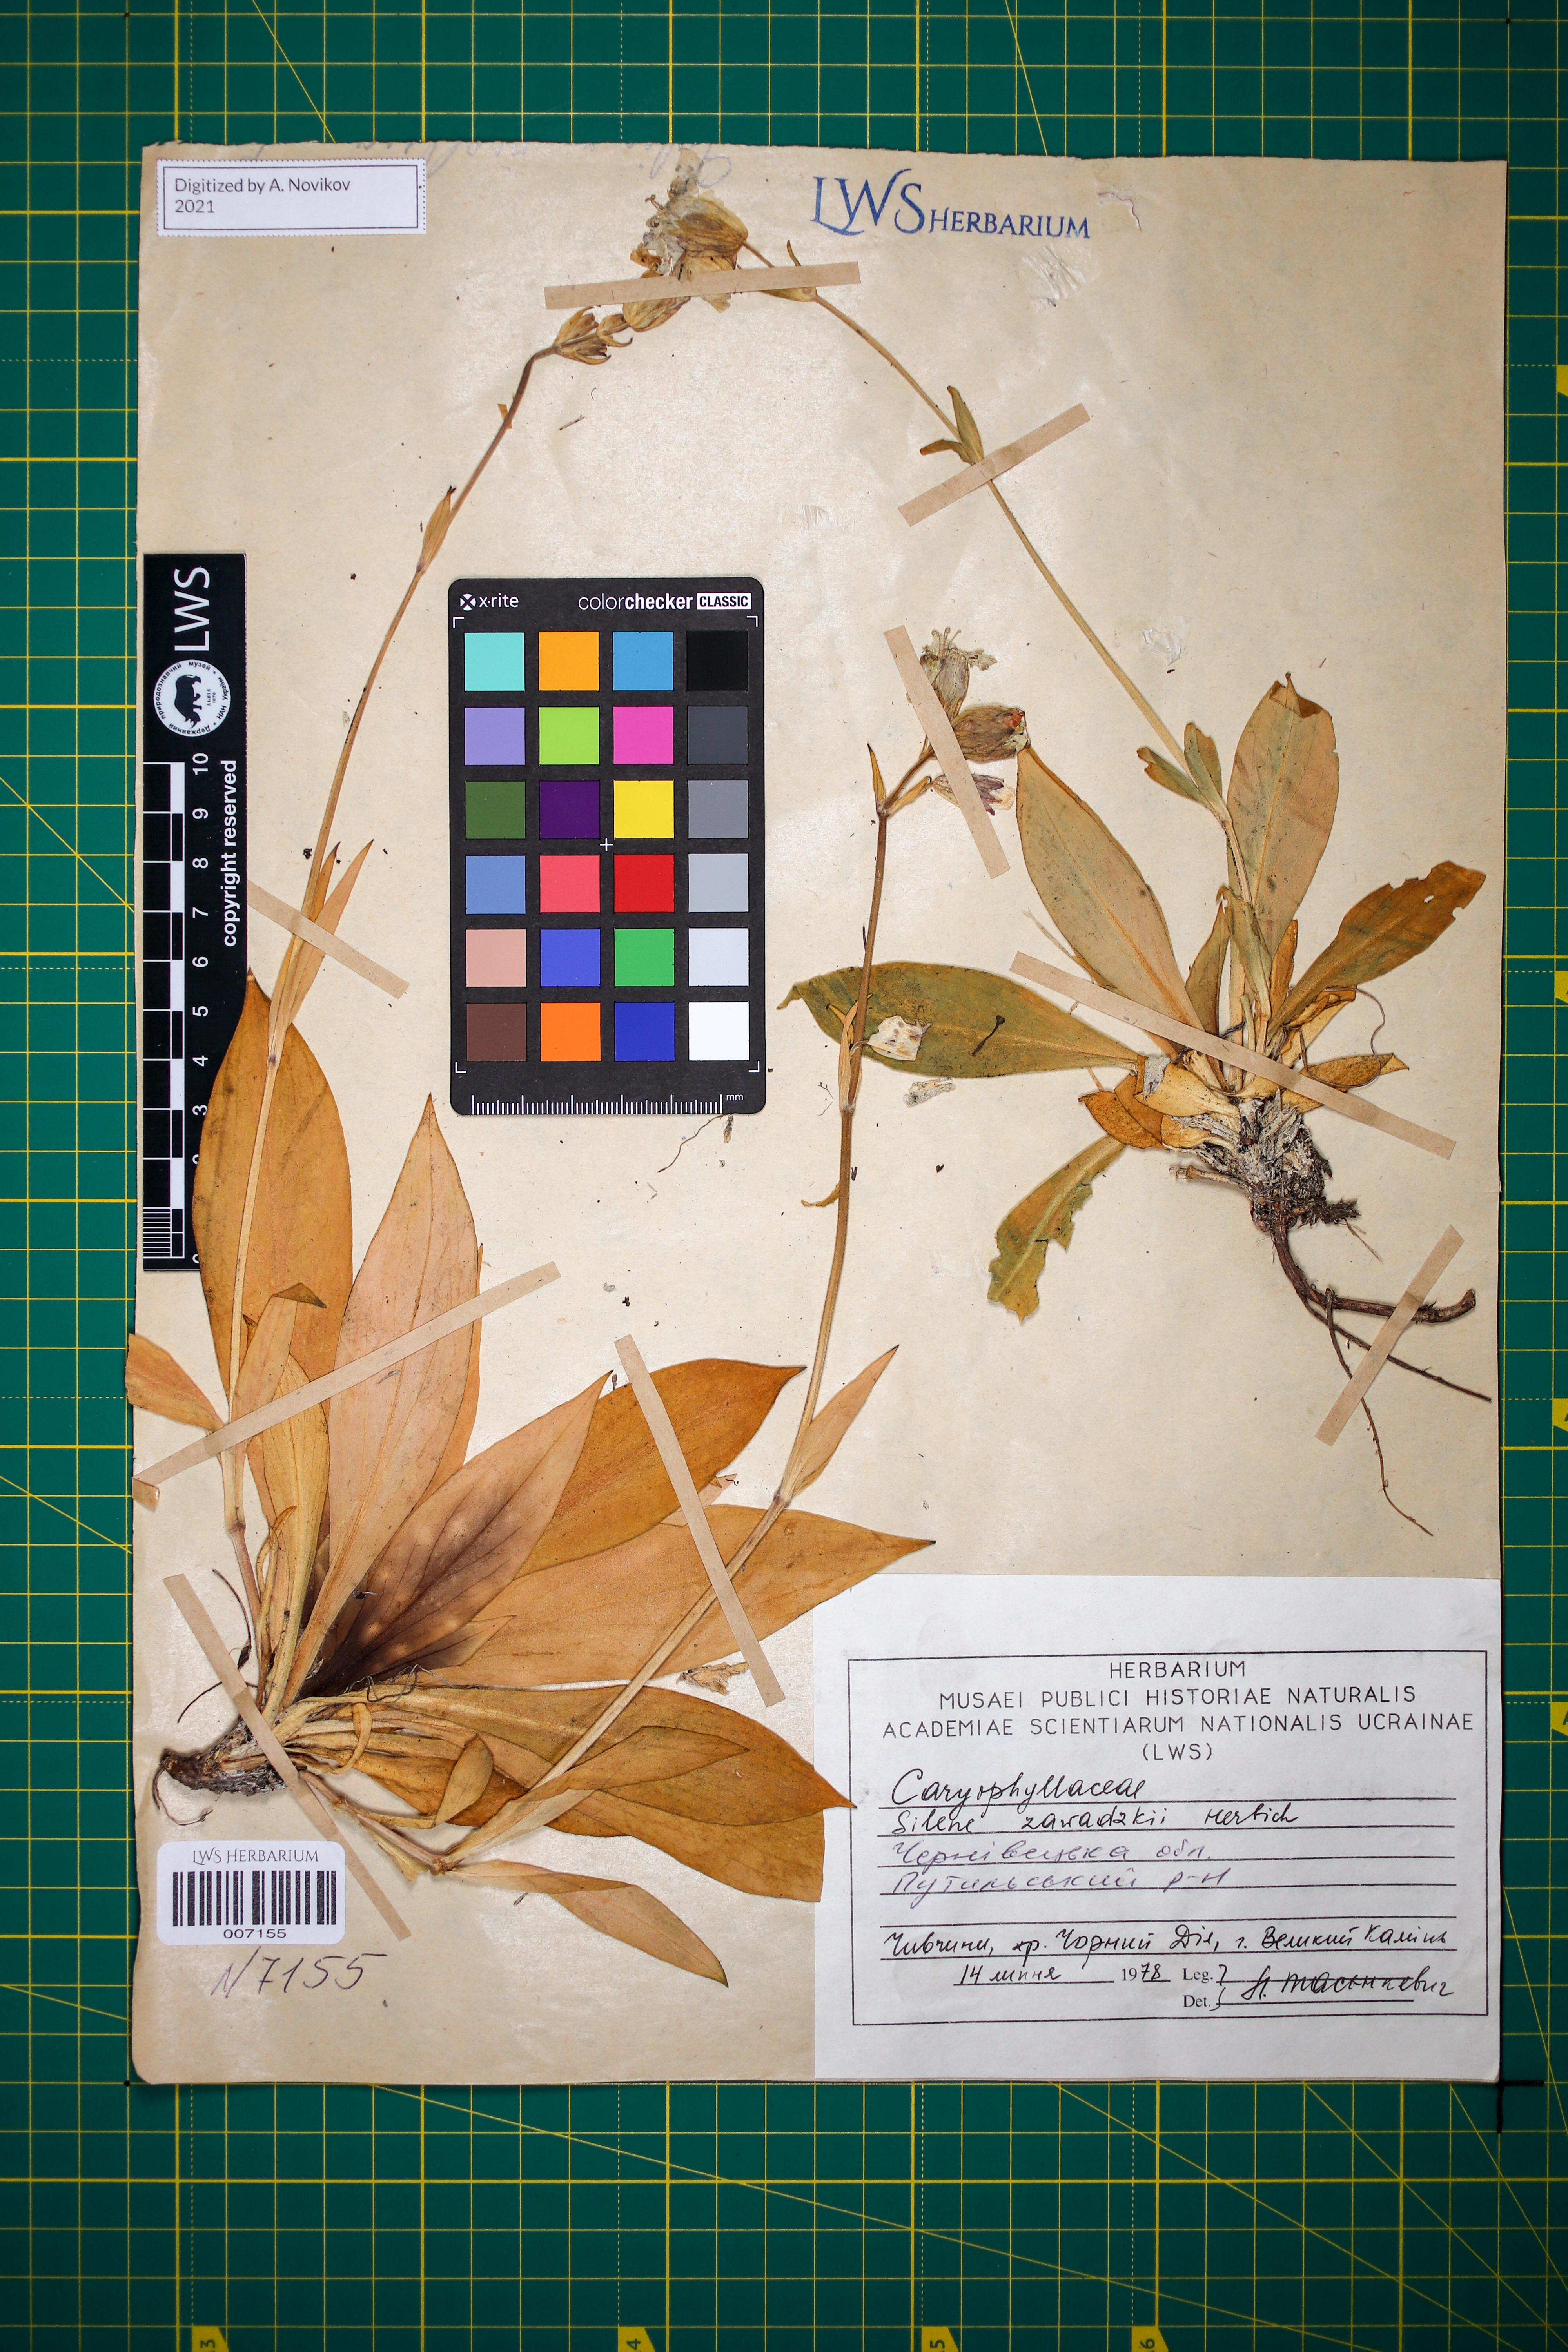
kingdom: Plantae
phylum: Tracheophyta
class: Magnoliopsida
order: Caryophyllales
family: Caryophyllaceae
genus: Silene
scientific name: Silene zawadzkii
